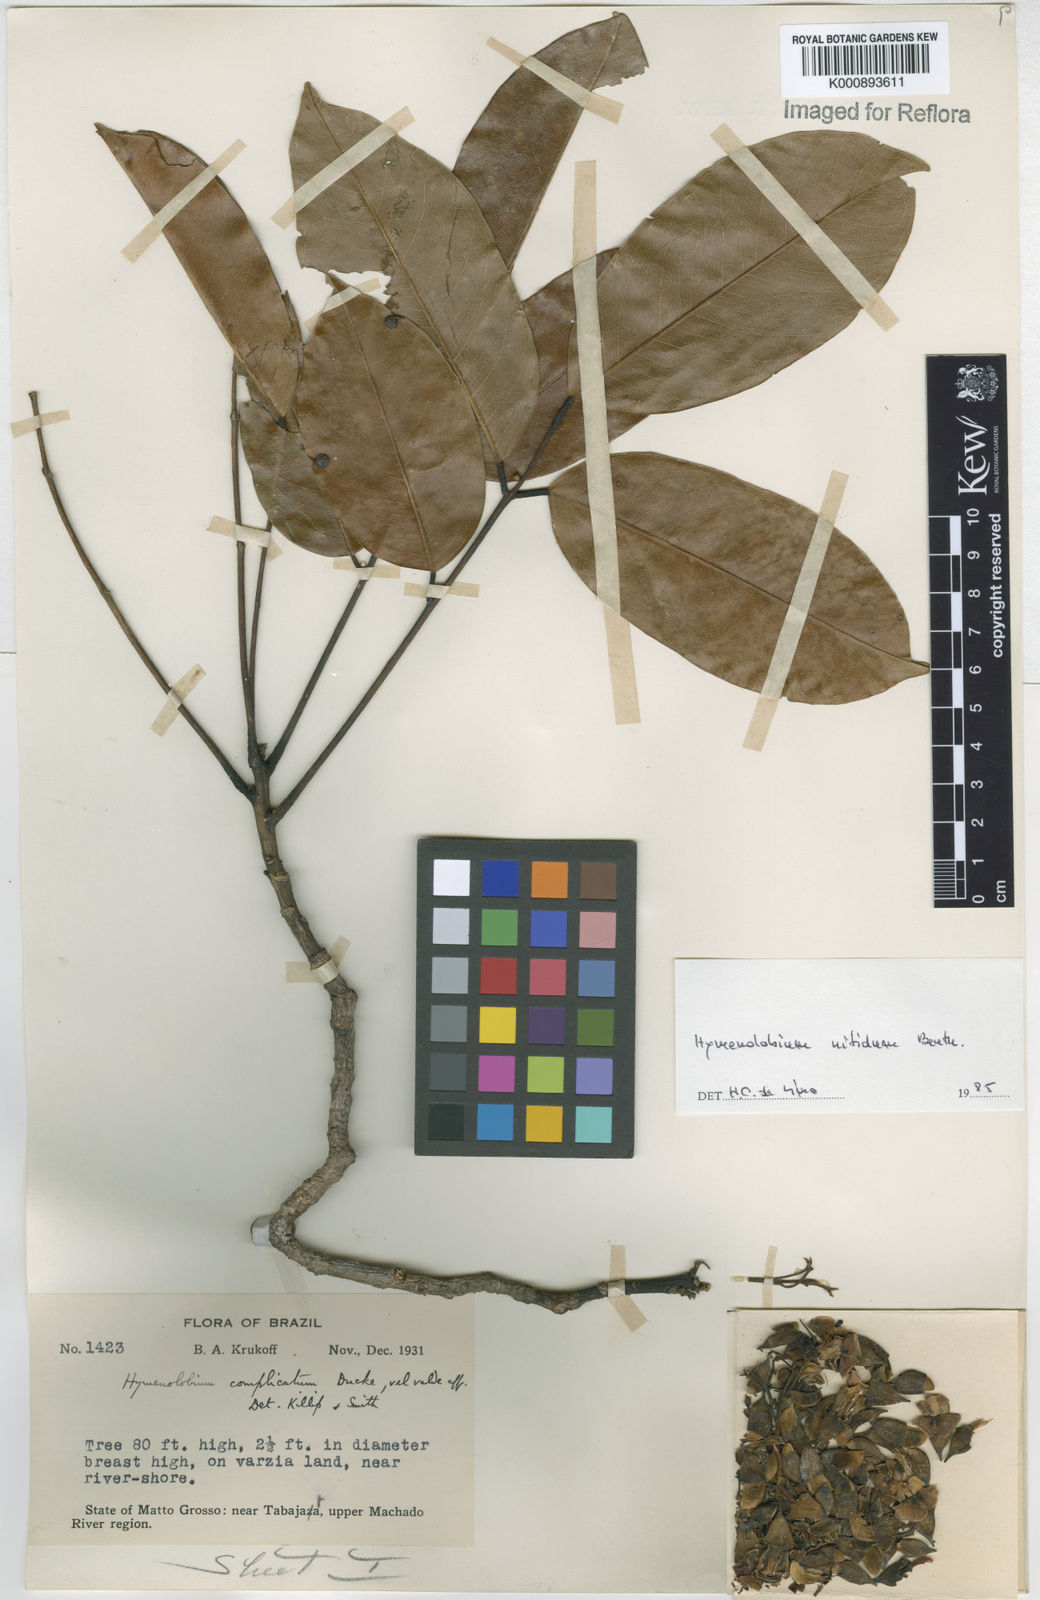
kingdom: Plantae
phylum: Tracheophyta
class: Magnoliopsida
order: Fabales
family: Fabaceae
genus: Hymenolobium
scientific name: Hymenolobium nitidum
